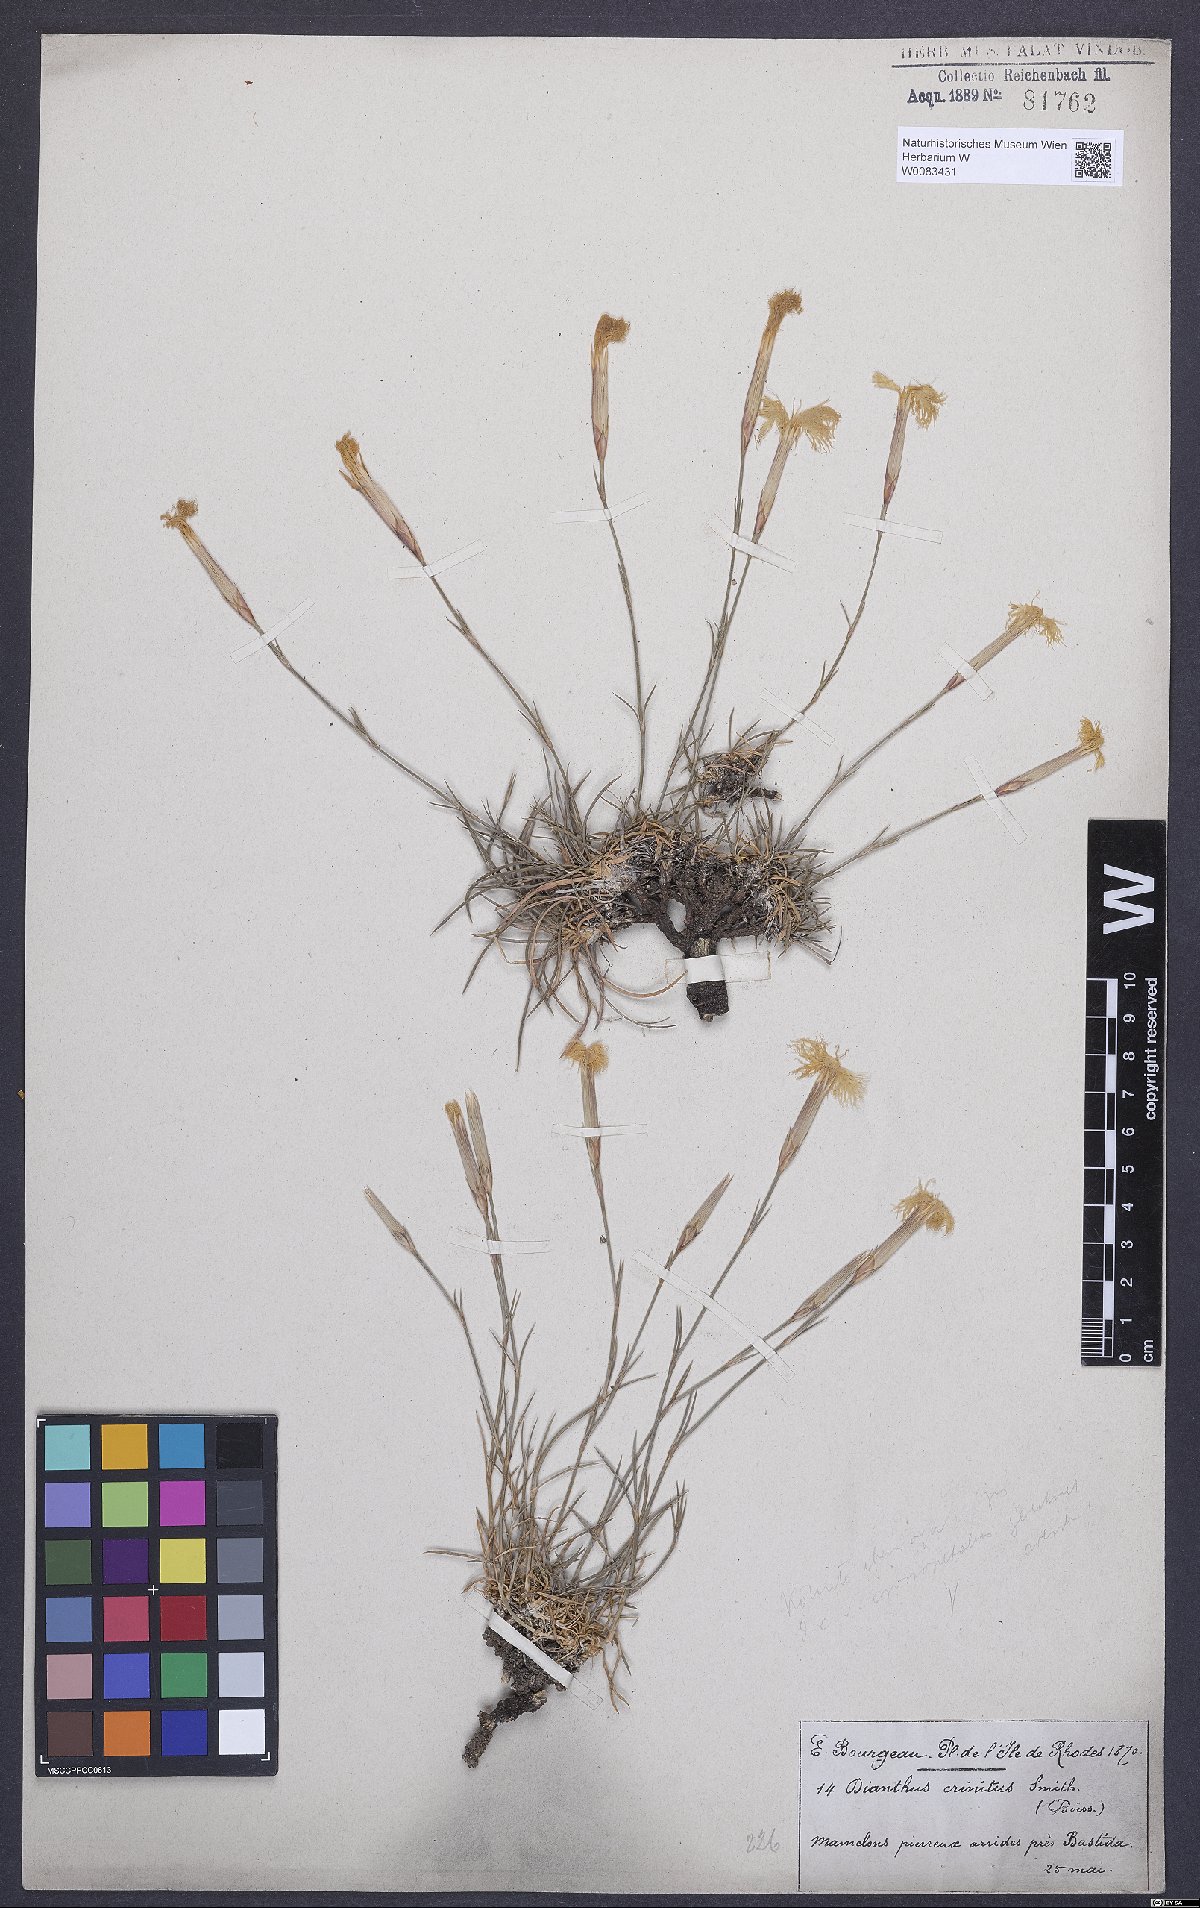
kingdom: Plantae
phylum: Tracheophyta
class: Magnoliopsida
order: Caryophyllales
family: Caryophyllaceae
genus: Dianthus
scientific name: Dianthus crinitus
